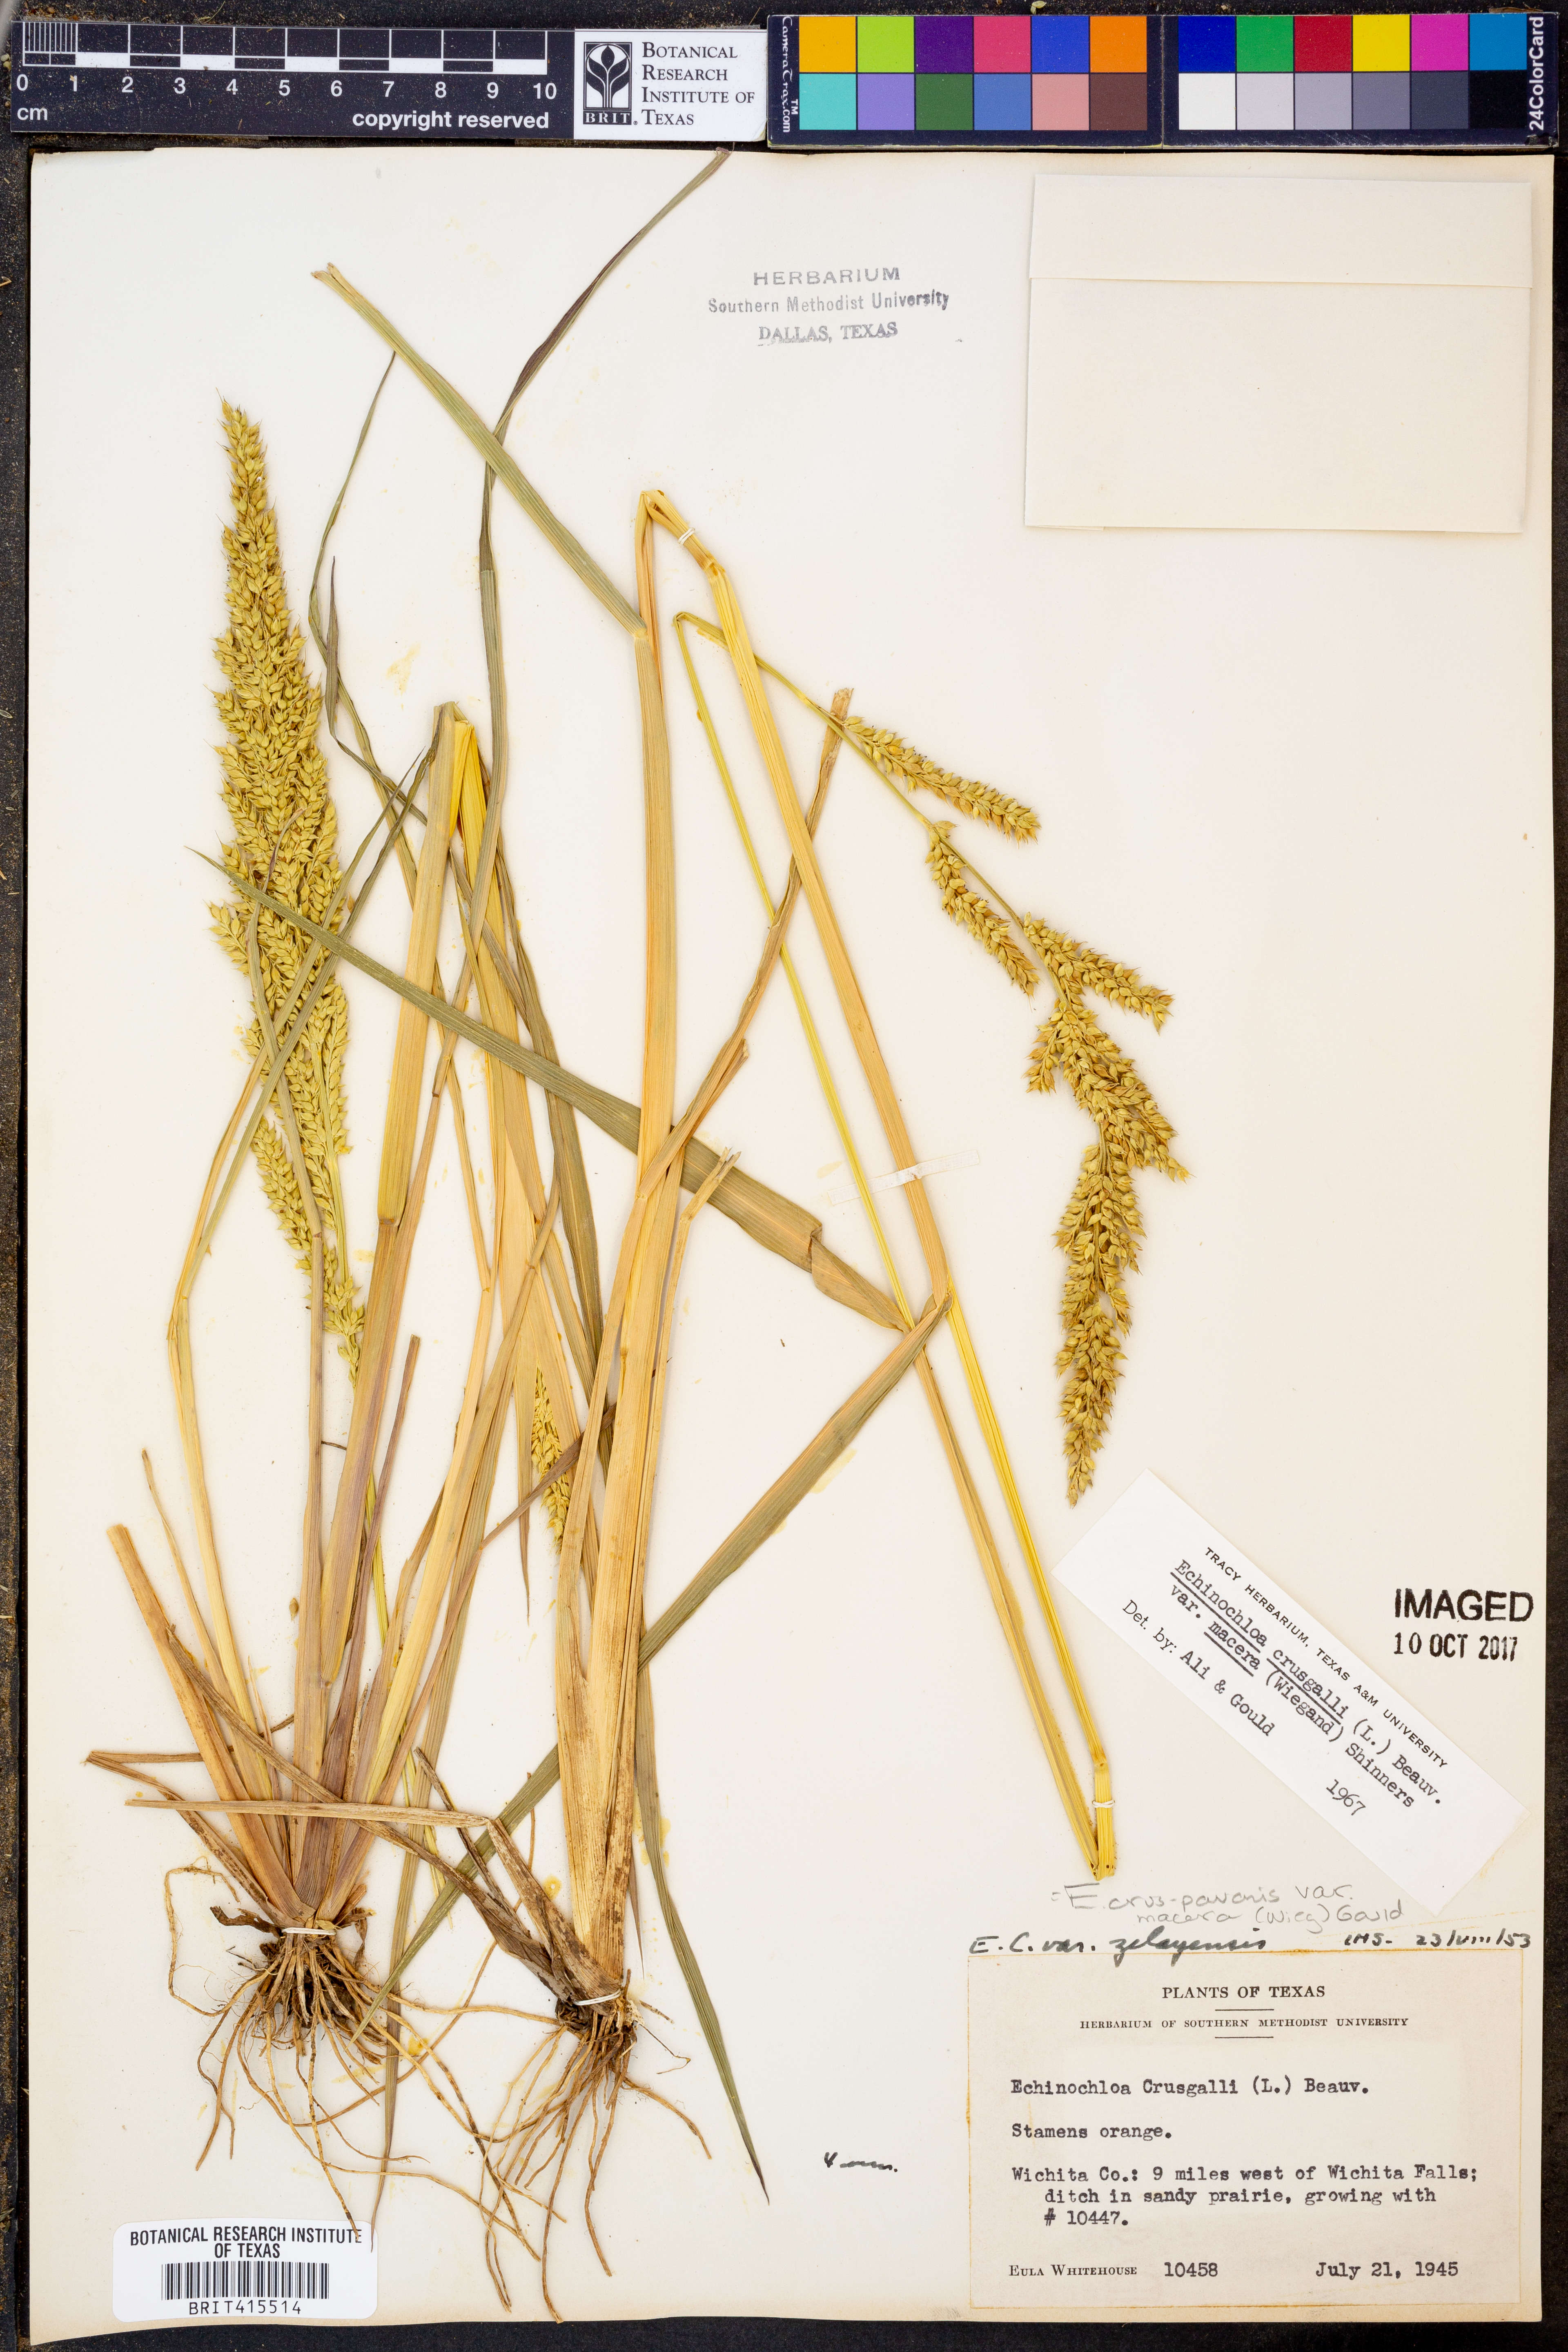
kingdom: Plantae
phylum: Tracheophyta
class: Liliopsida
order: Poales
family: Poaceae
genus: Echinochloa
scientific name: Echinochloa crus-pavonis
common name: Gulf cockspur grass
